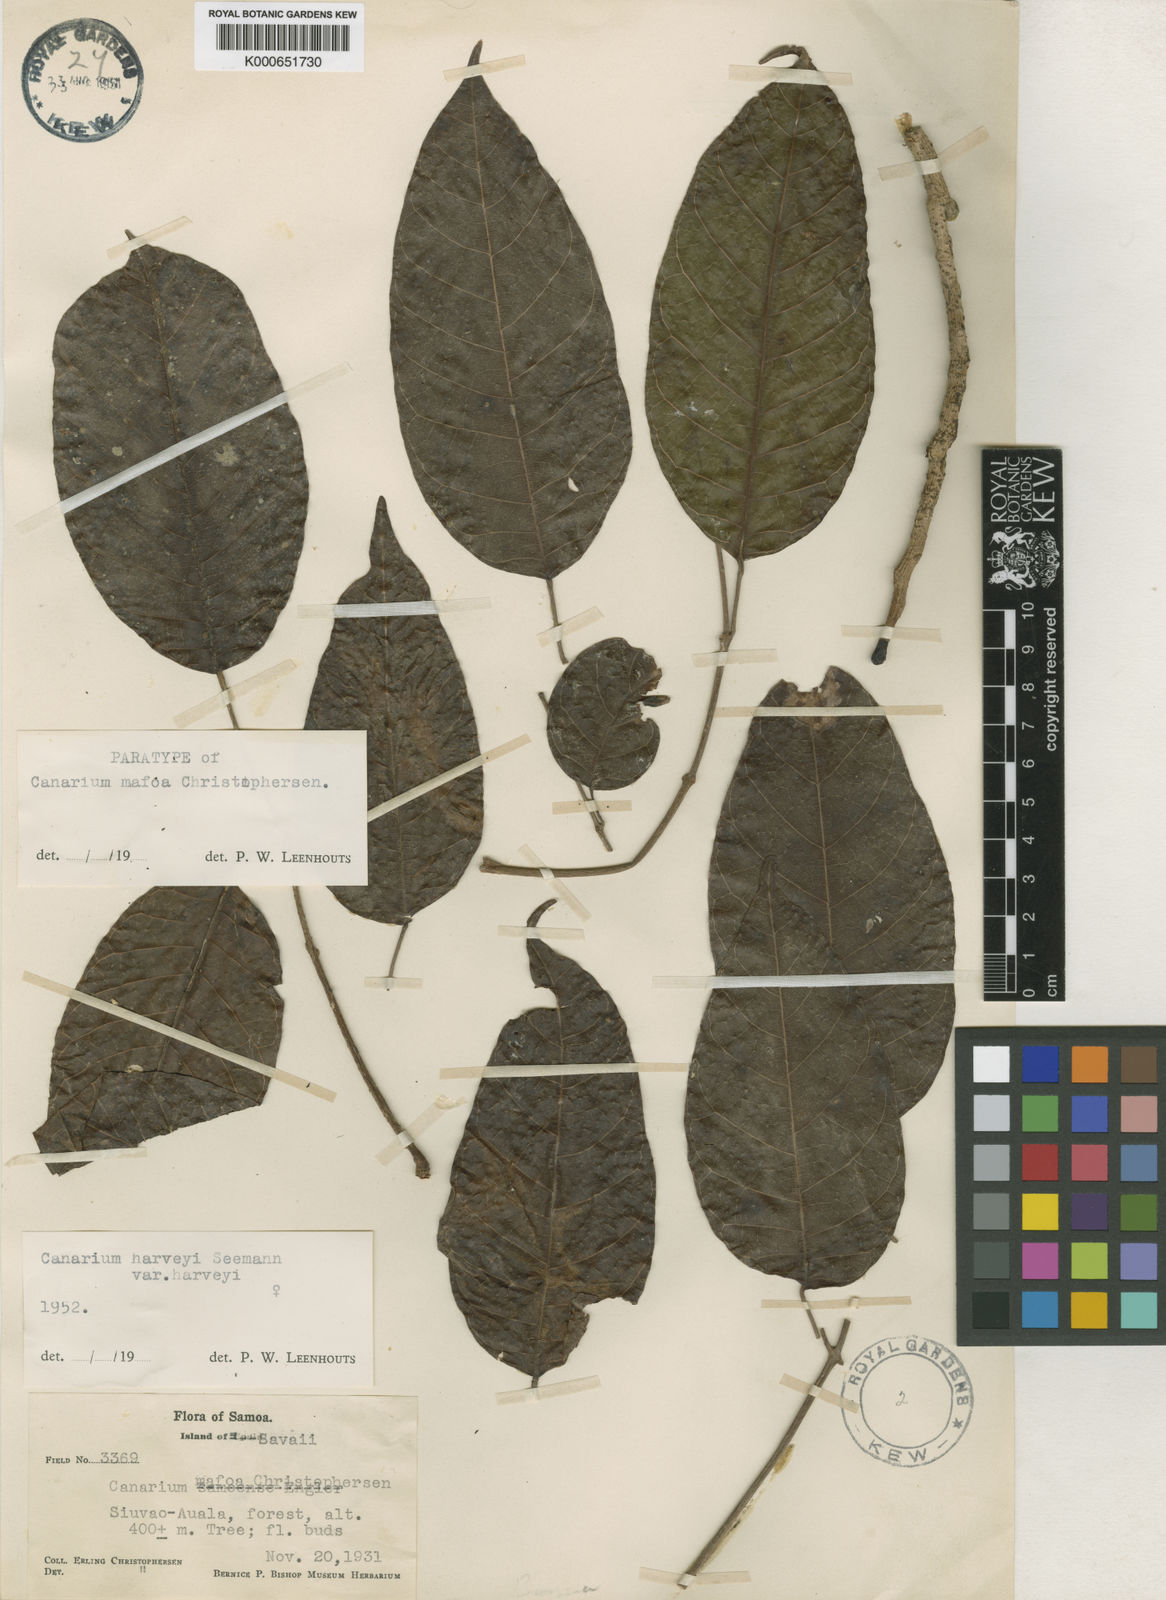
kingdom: Plantae
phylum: Tracheophyta
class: Magnoliopsida
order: Sapindales
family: Burseraceae
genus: Canarium
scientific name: Canarium harveyi
